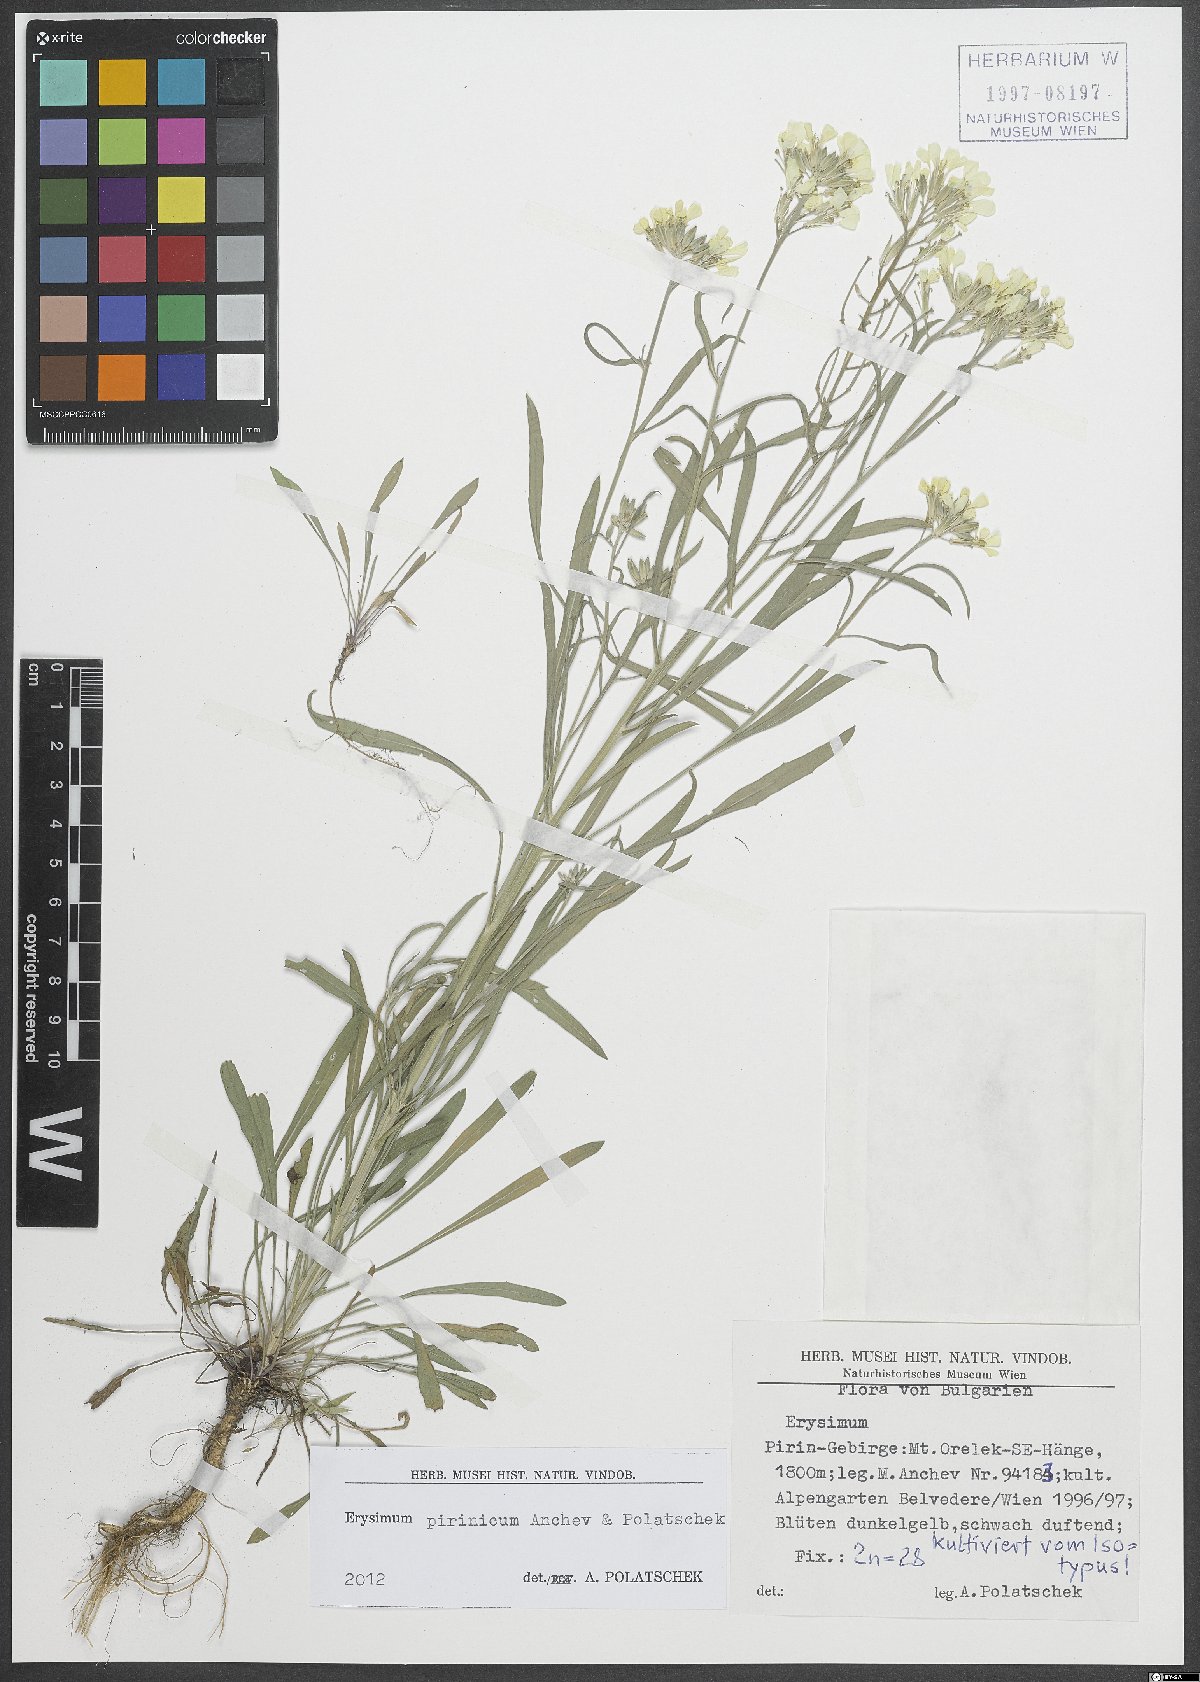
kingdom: Plantae
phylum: Tracheophyta
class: Magnoliopsida
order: Brassicales
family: Brassicaceae
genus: Erysimum
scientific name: Erysimum pirinicum
